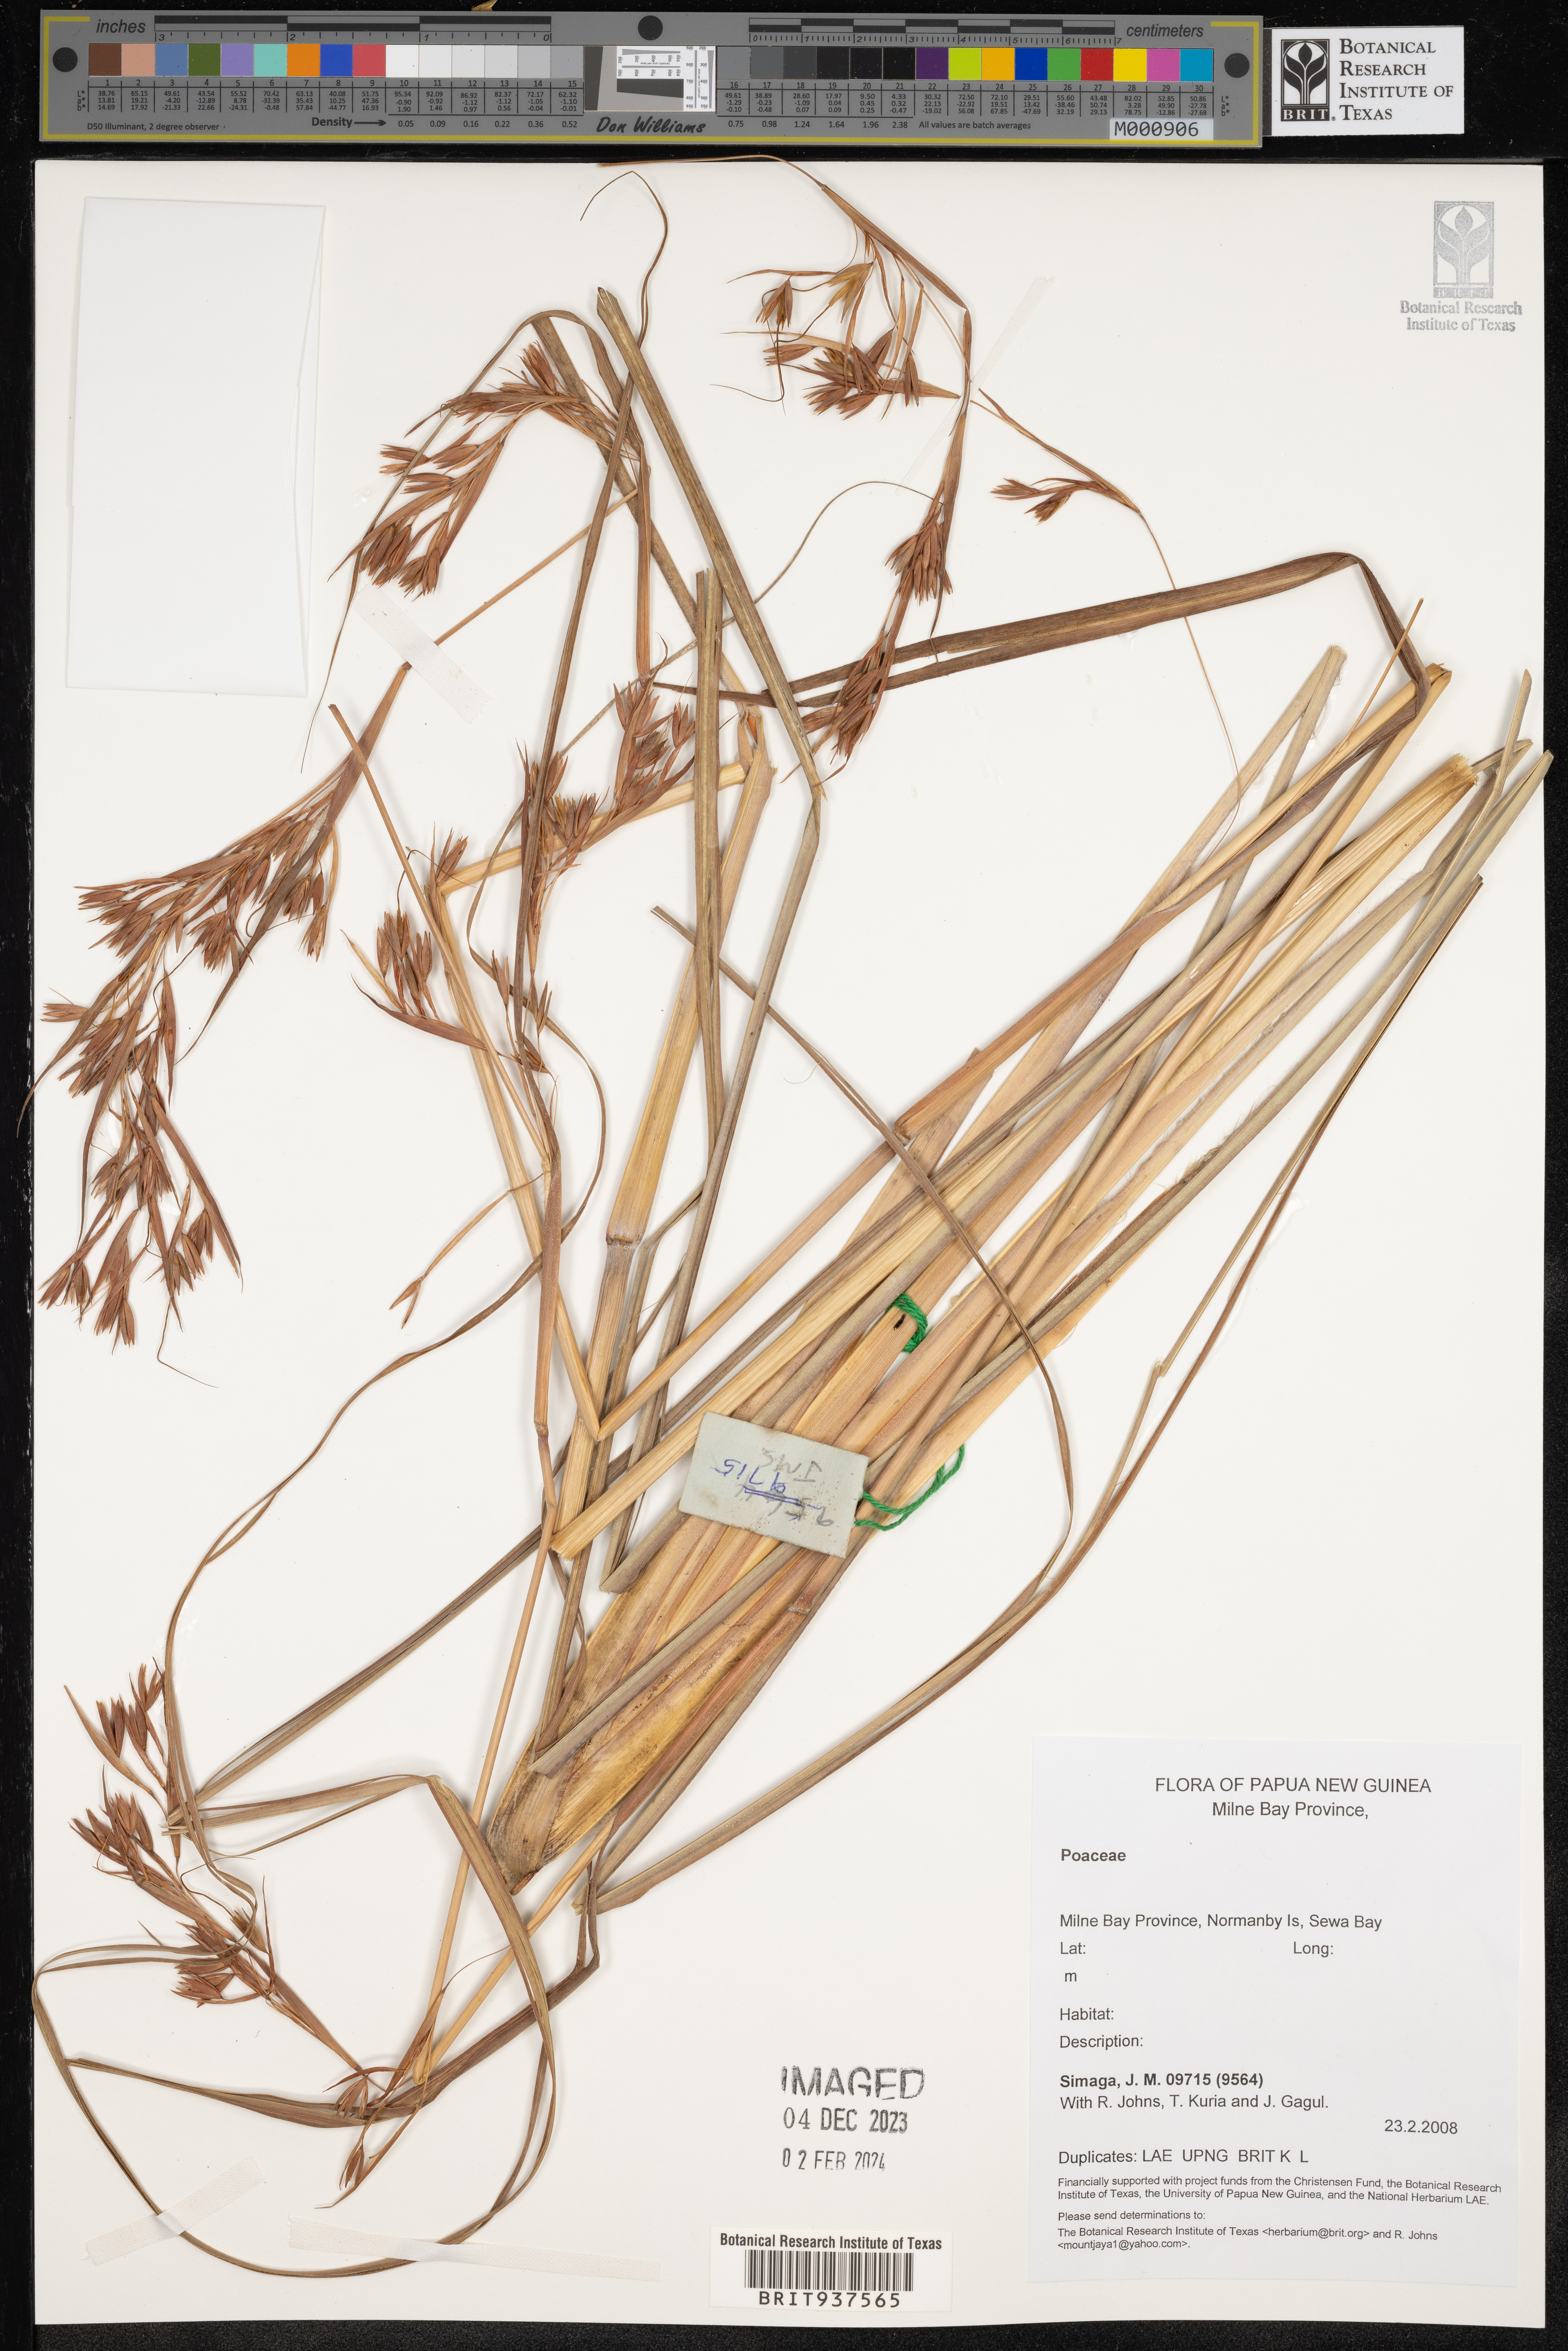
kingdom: Plantae
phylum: Tracheophyta
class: Liliopsida
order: Poales
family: Poaceae
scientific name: Poaceae
